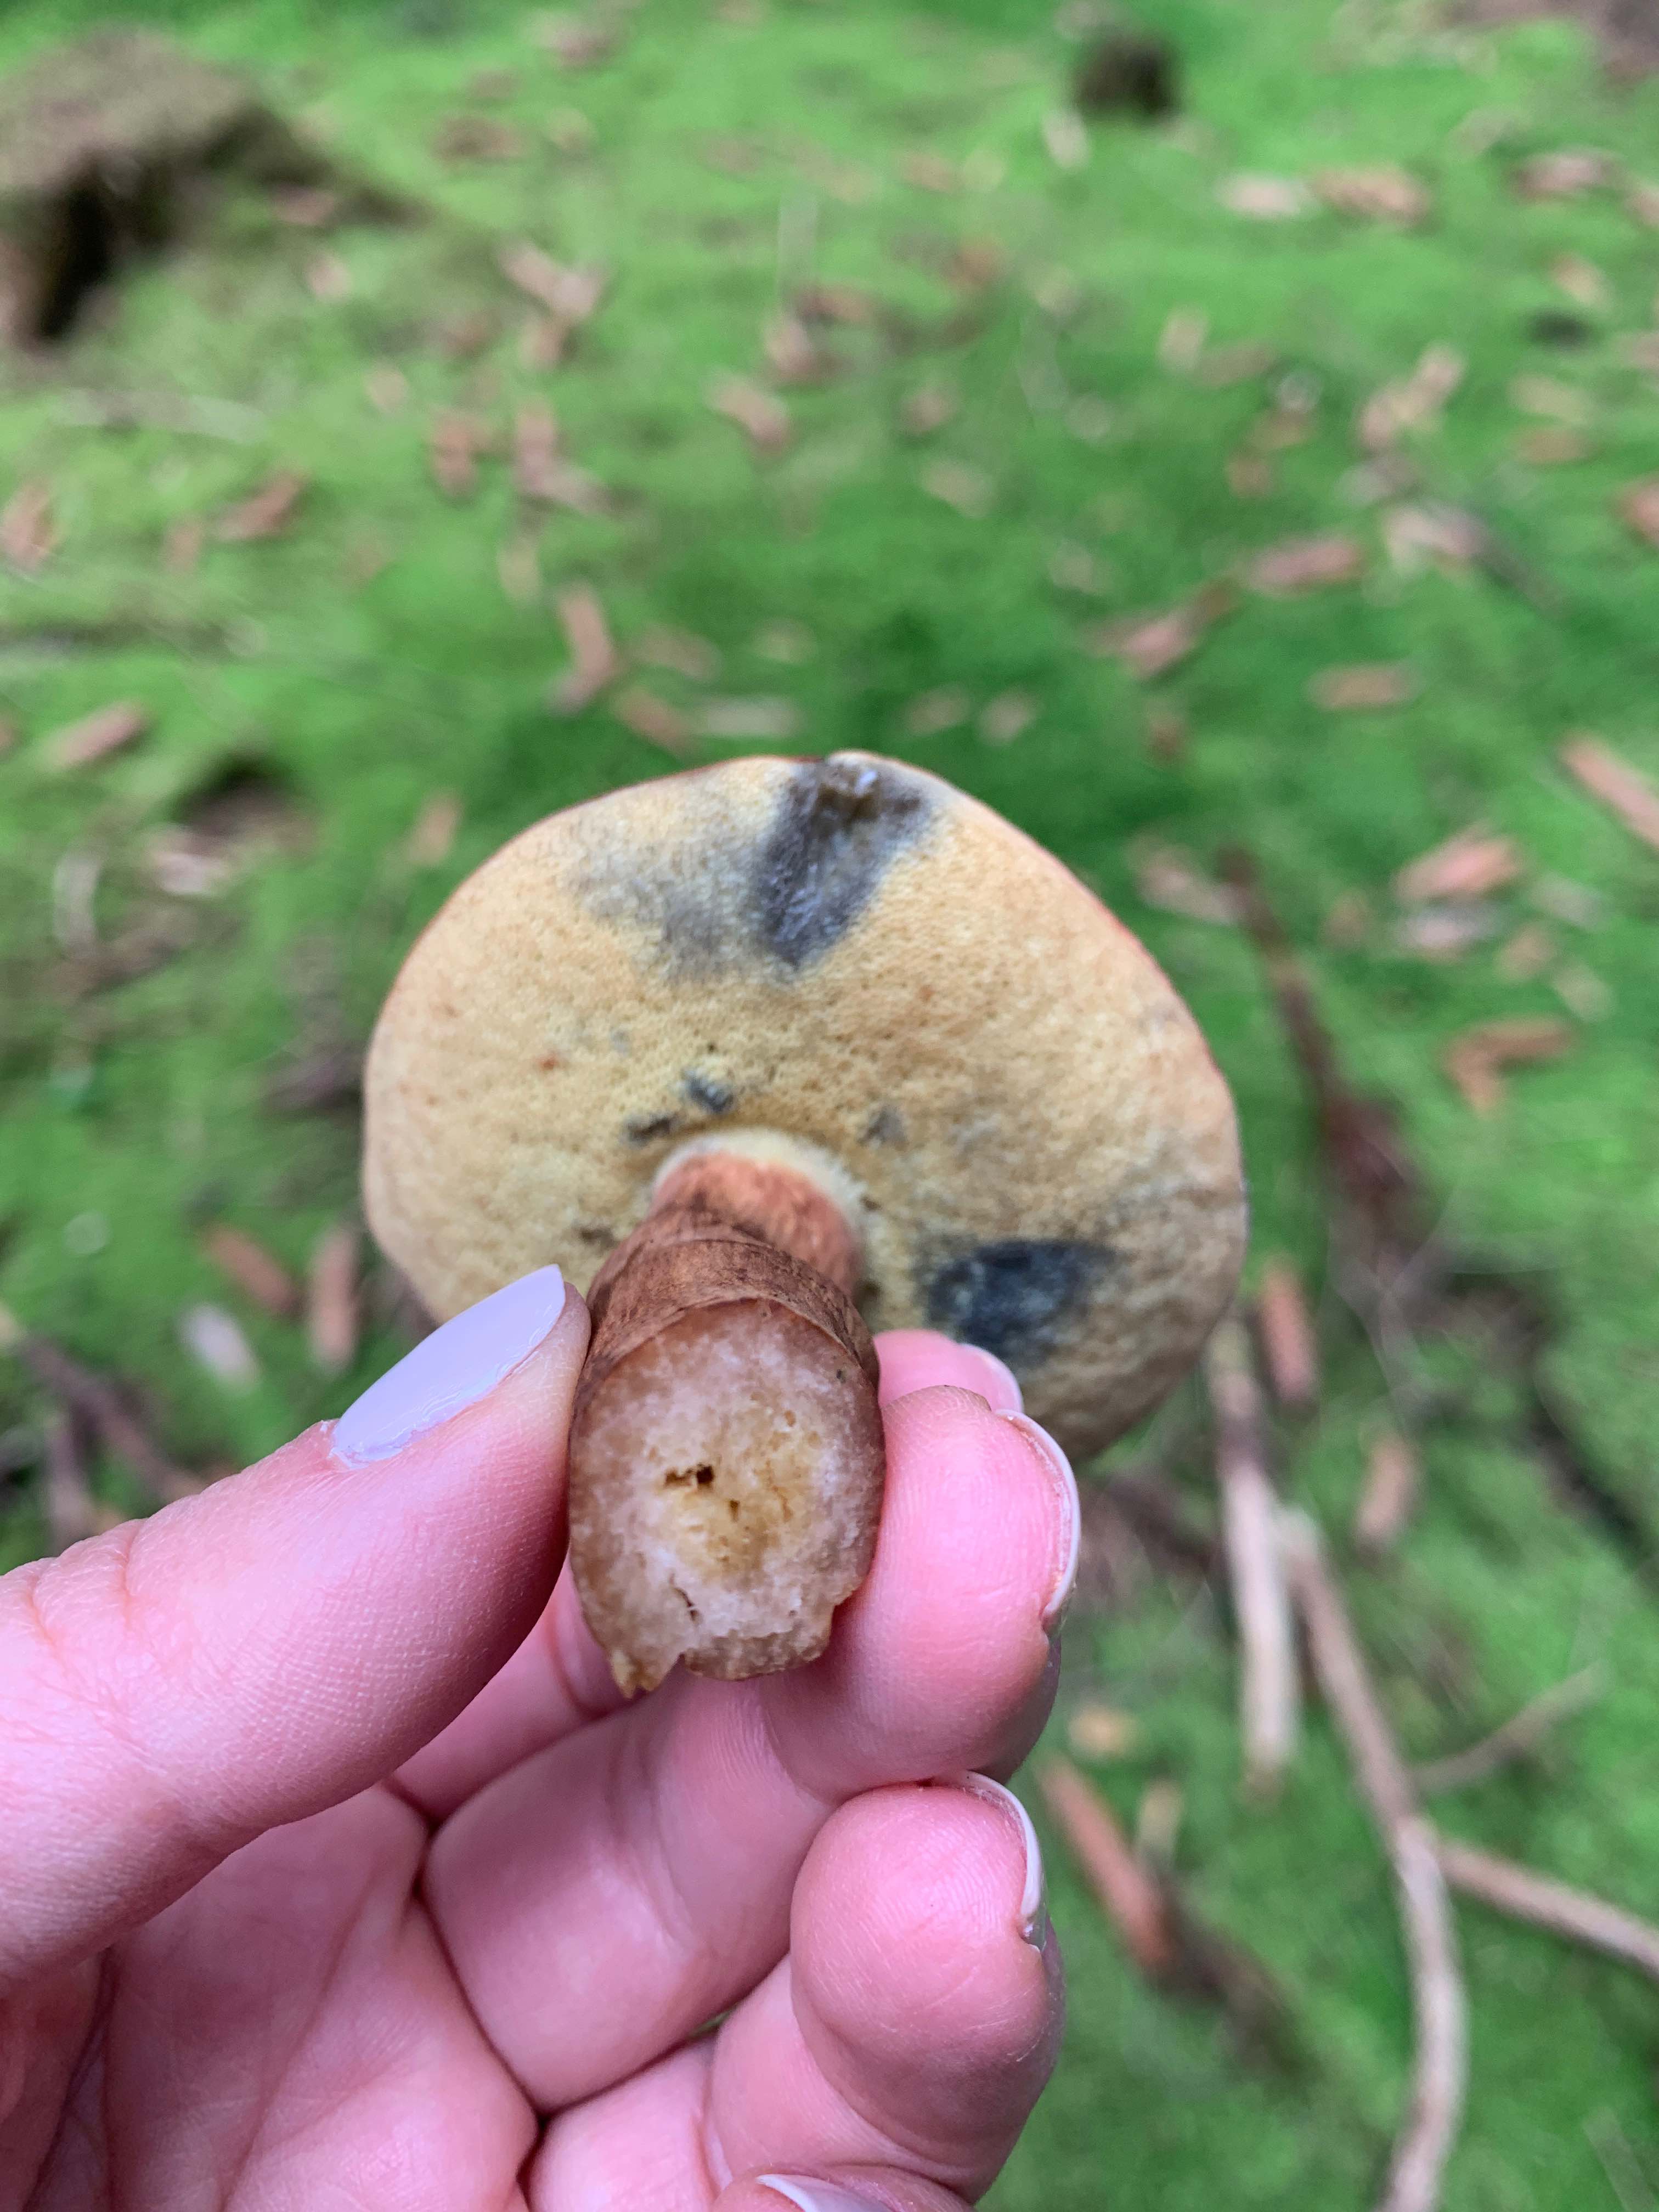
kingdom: Fungi
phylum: Basidiomycota
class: Agaricomycetes
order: Boletales
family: Boletaceae
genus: Imleria
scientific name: Imleria badia
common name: brunstokket rørhat
